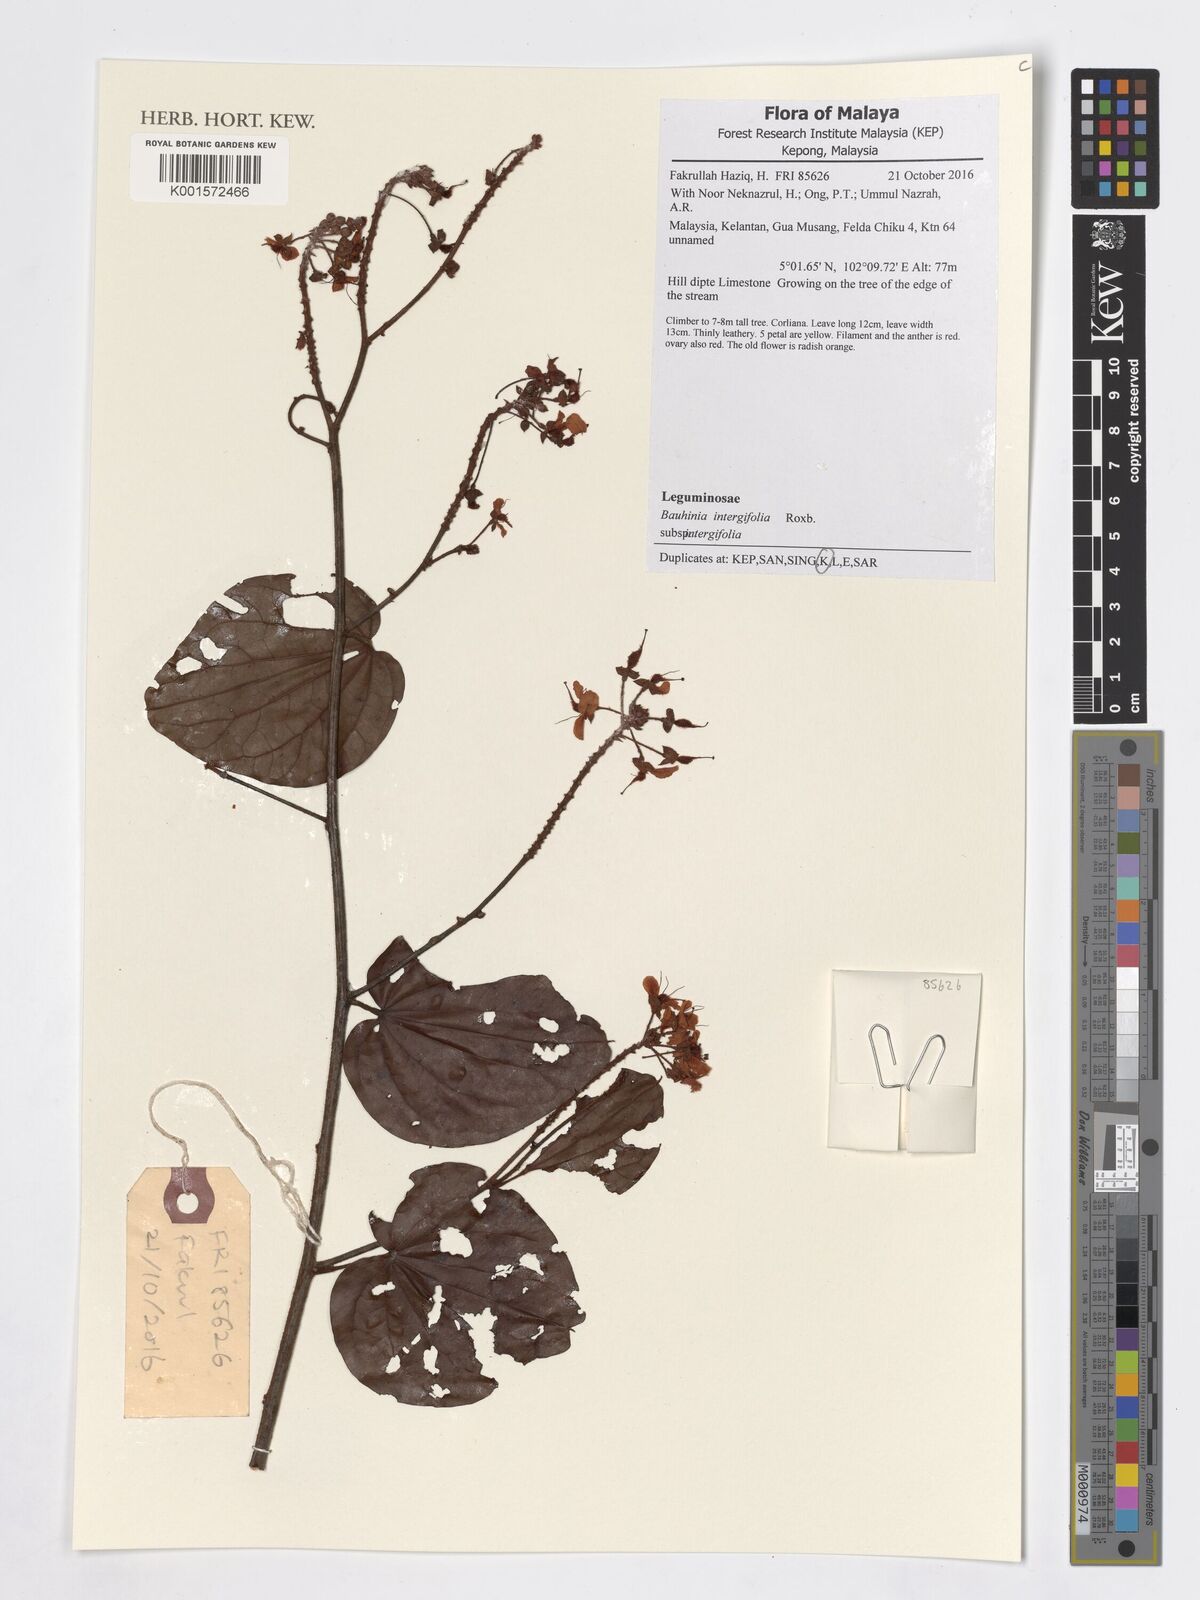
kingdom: Plantae
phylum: Tracheophyta
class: Magnoliopsida
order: Fabales
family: Fabaceae
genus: Phanera
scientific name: Phanera integrifolia
